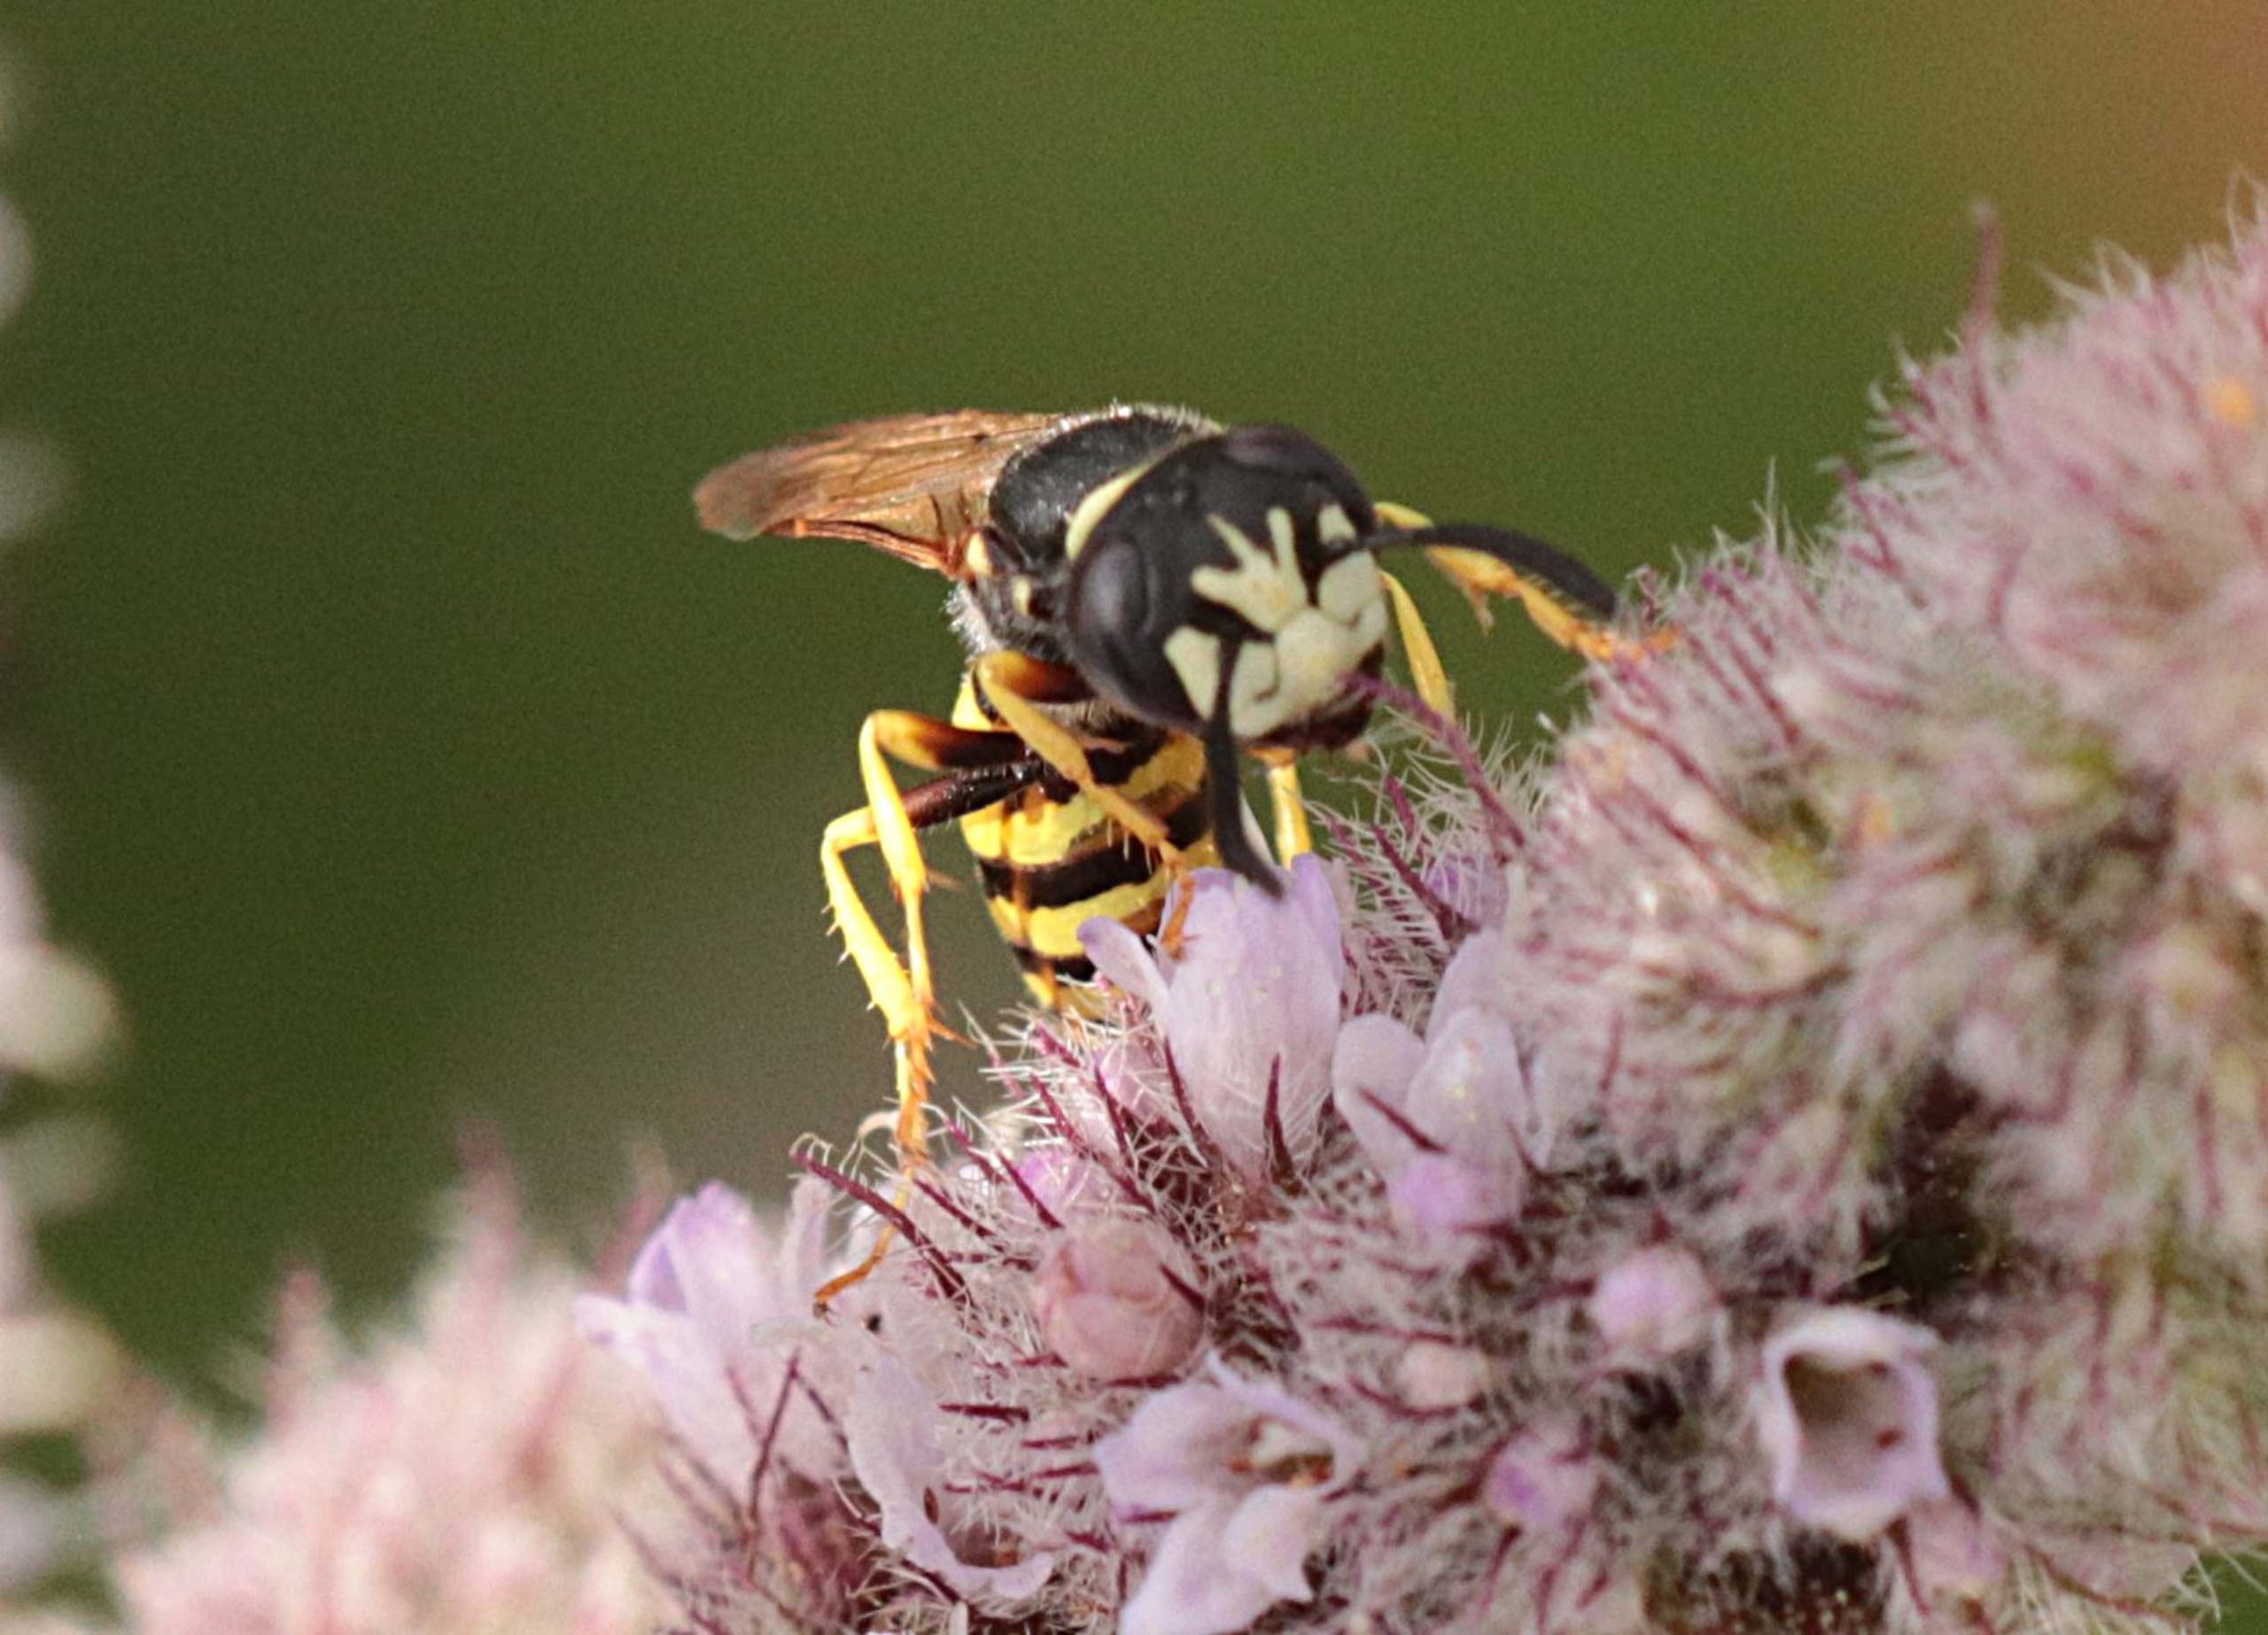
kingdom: Animalia
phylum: Arthropoda
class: Insecta
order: Hymenoptera
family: Crabronidae
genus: Philanthus
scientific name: Philanthus triangulum
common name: Biulv
